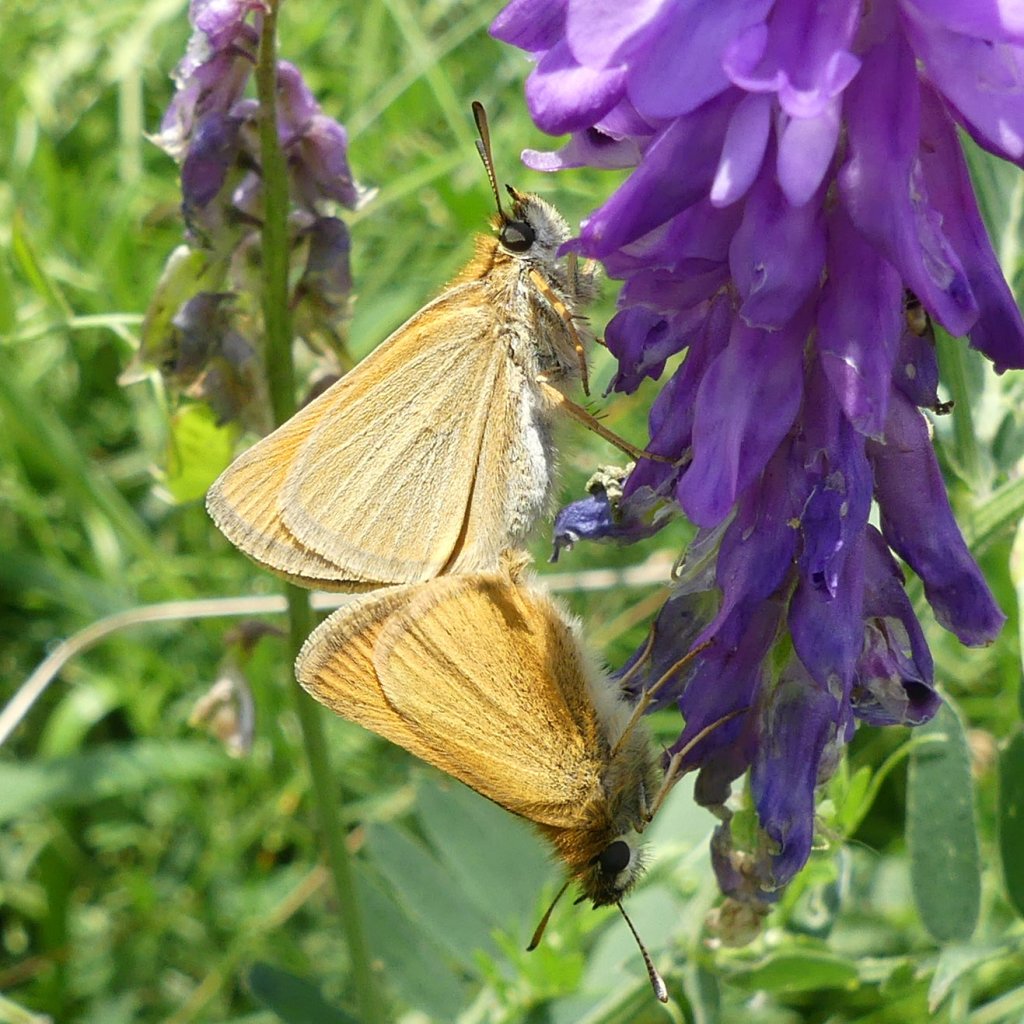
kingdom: Animalia
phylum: Arthropoda
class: Insecta
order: Lepidoptera
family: Hesperiidae
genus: Thymelicus
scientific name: Thymelicus lineola
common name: European Skipper
